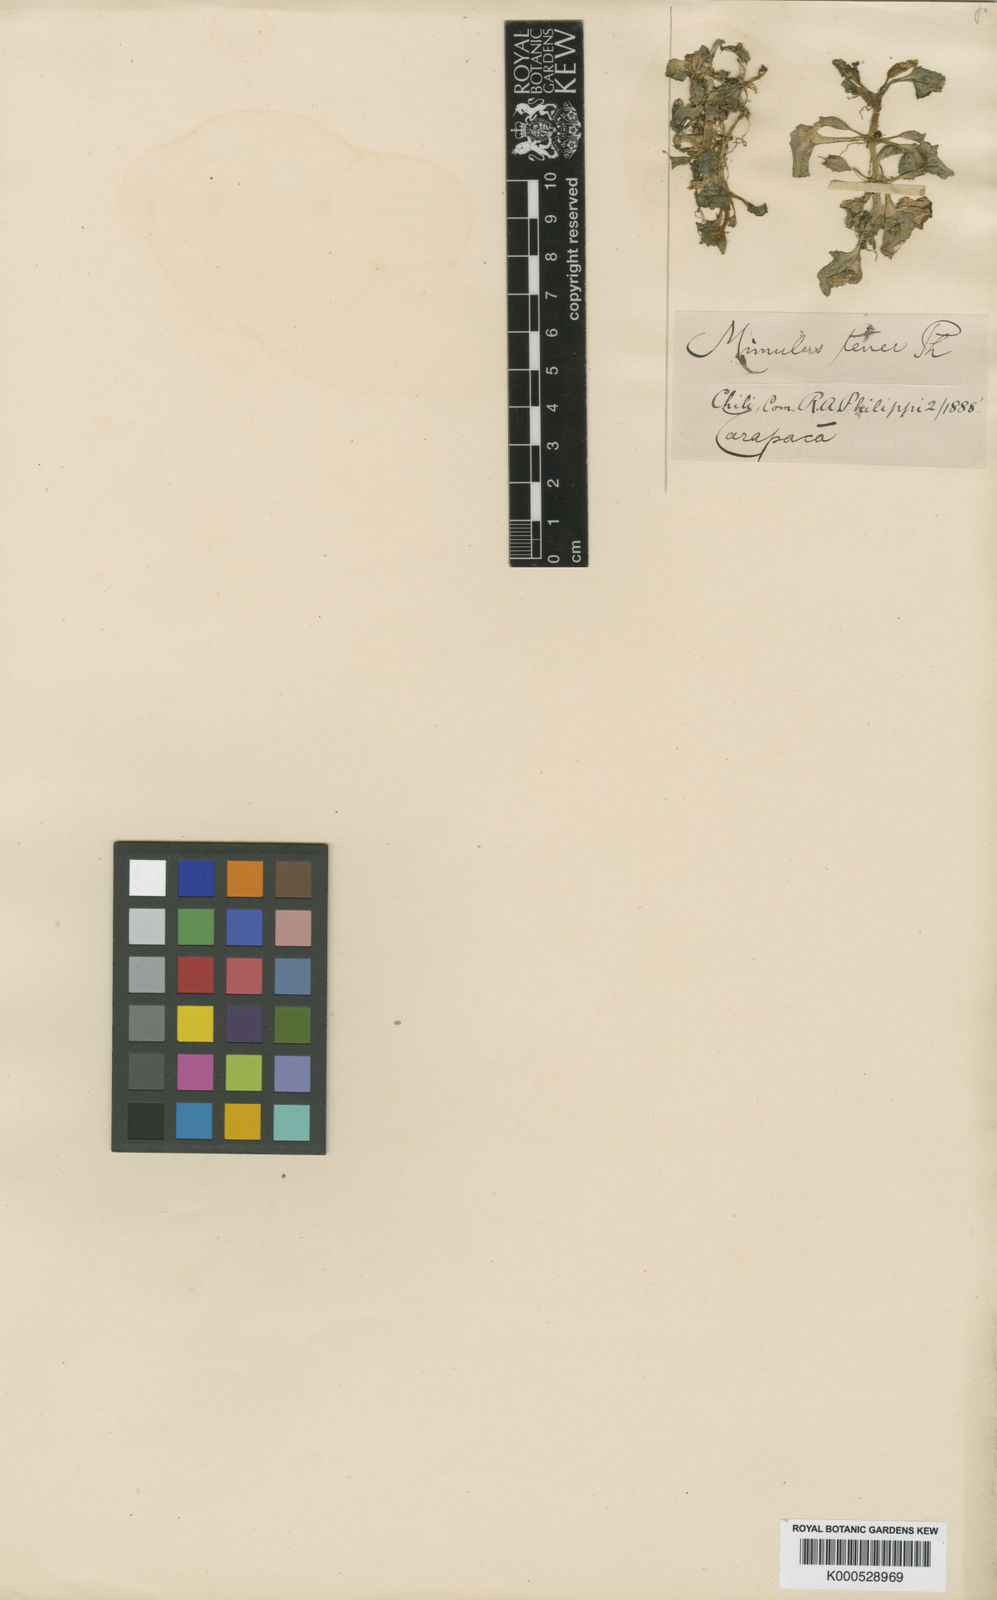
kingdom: Plantae
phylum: Tracheophyta
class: Magnoliopsida
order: Lamiales
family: Phrymaceae
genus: Erythranthe
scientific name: Erythranthe glabrata
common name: Round-leaved monkeyflower
